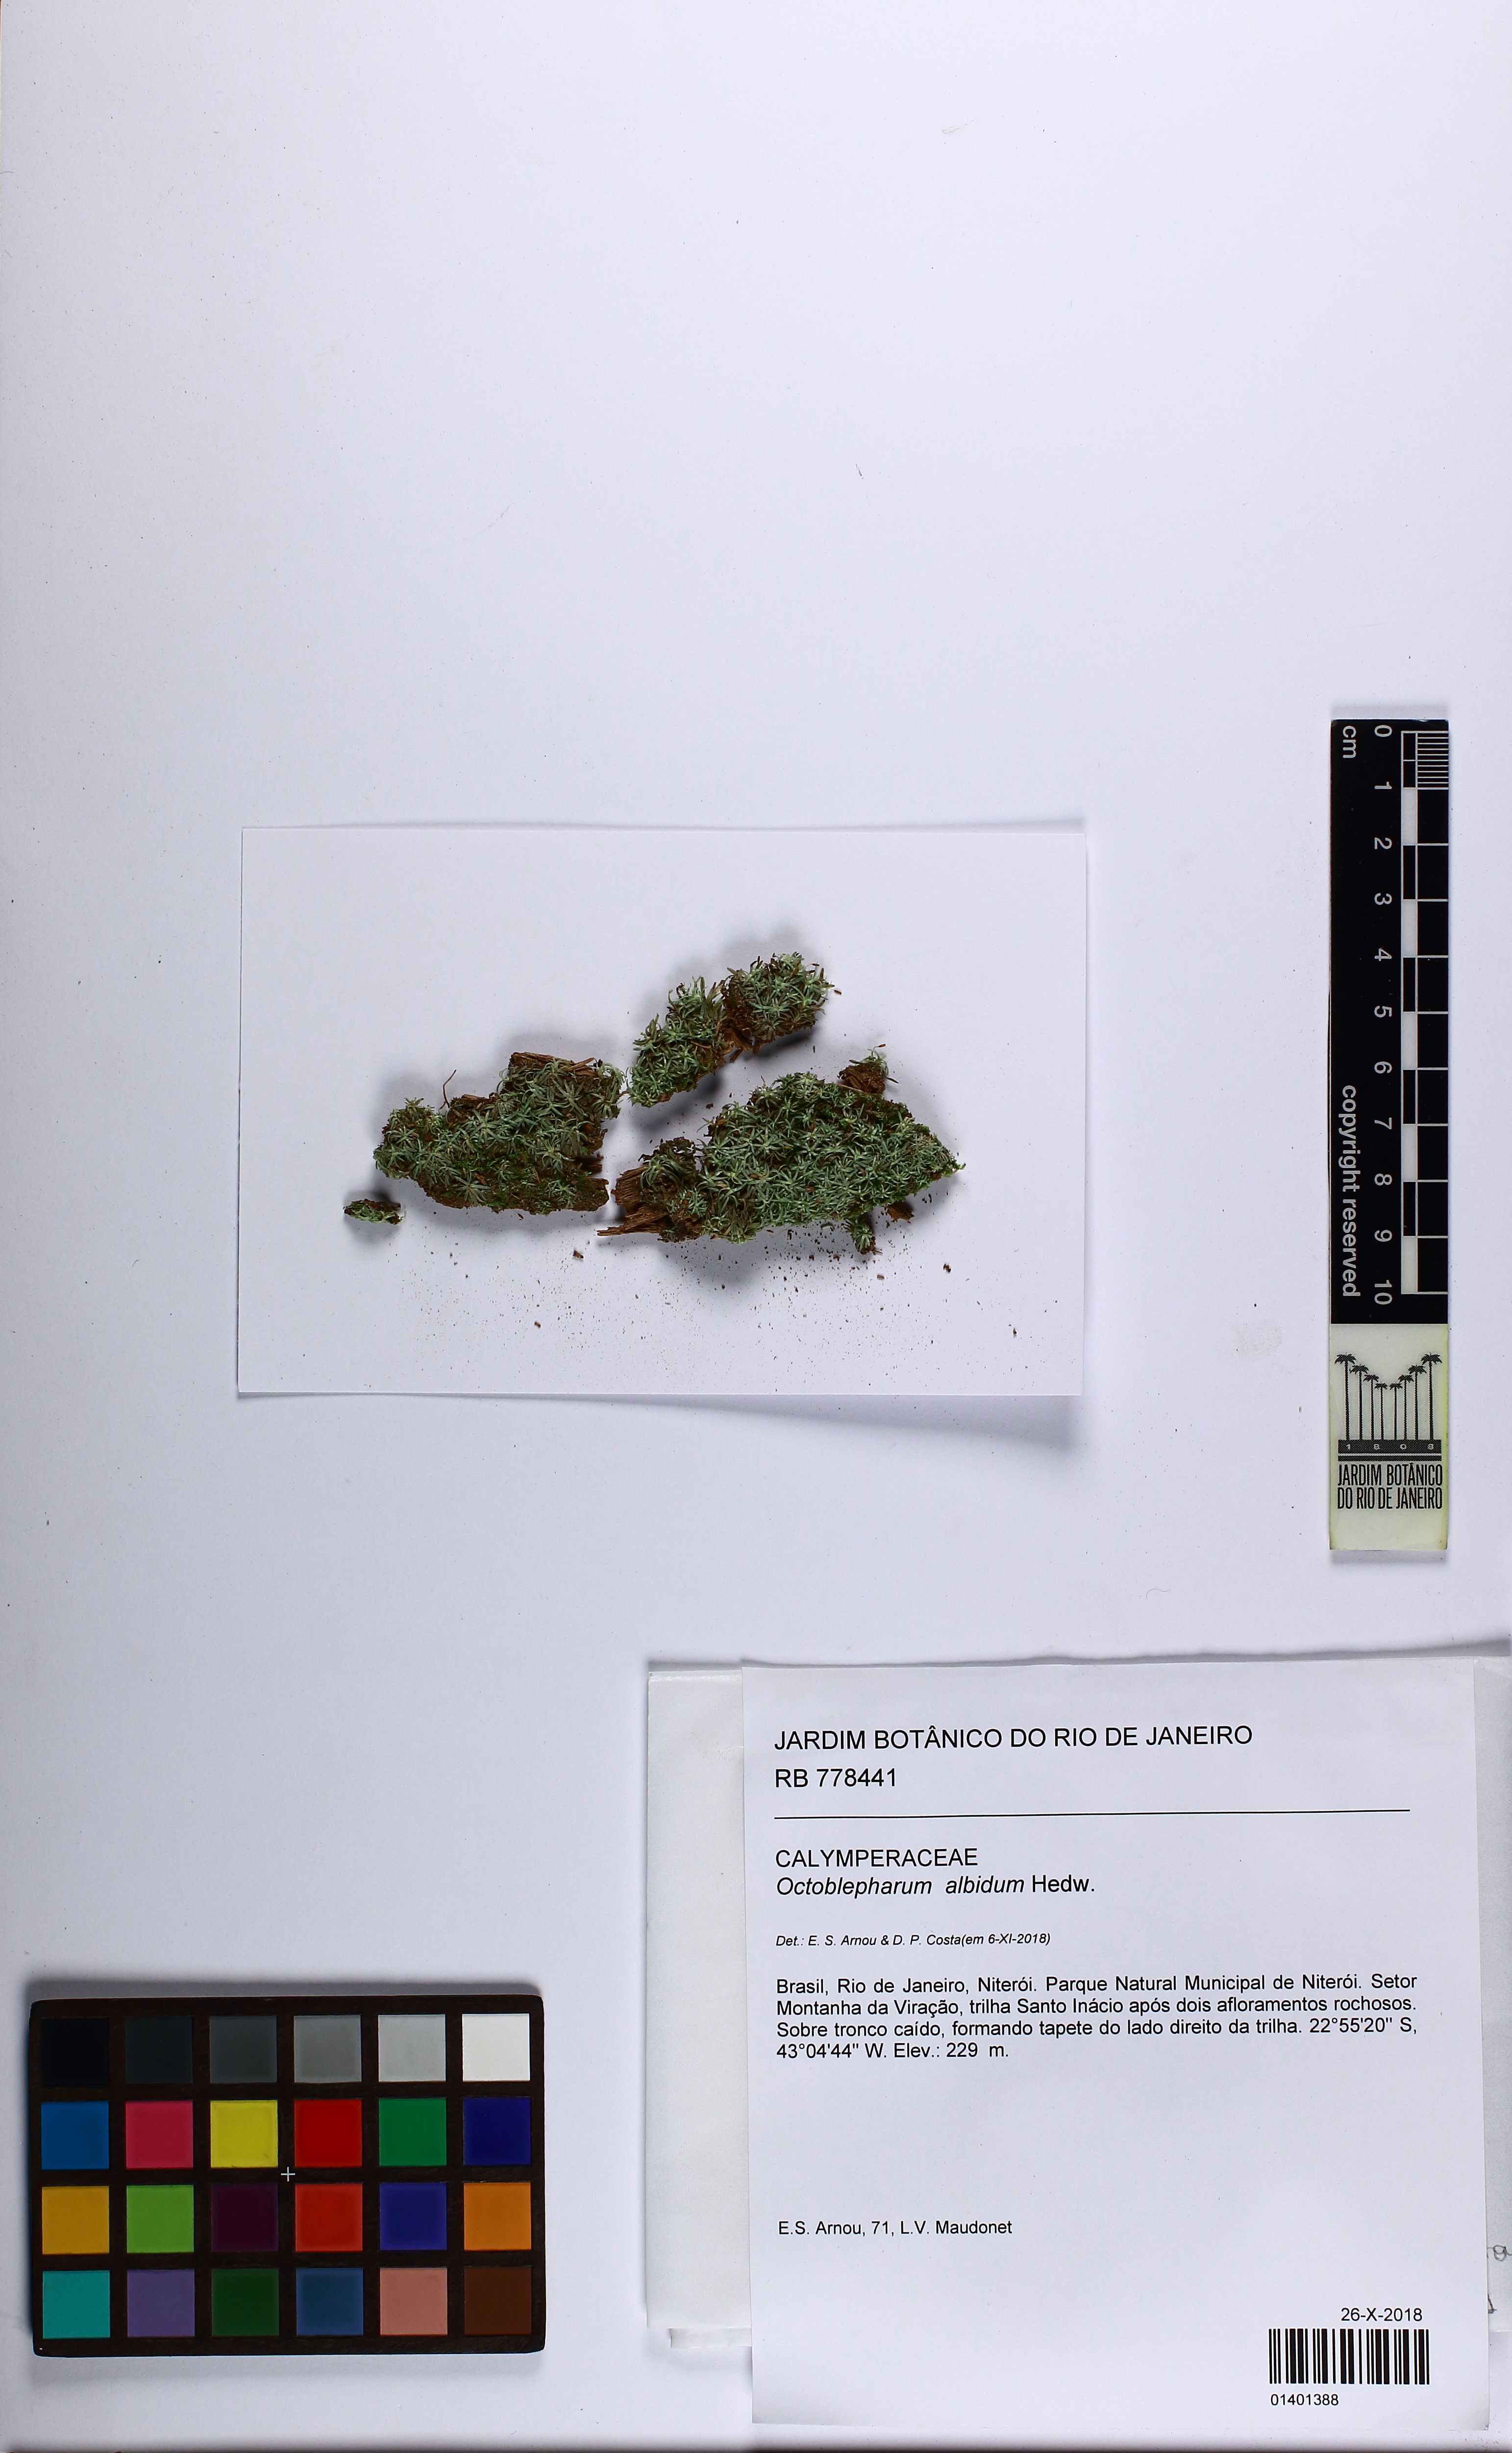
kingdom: Plantae
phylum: Bryophyta
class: Bryopsida
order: Dicranales
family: Octoblepharaceae
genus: Octoblepharum
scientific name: Octoblepharum albidum
